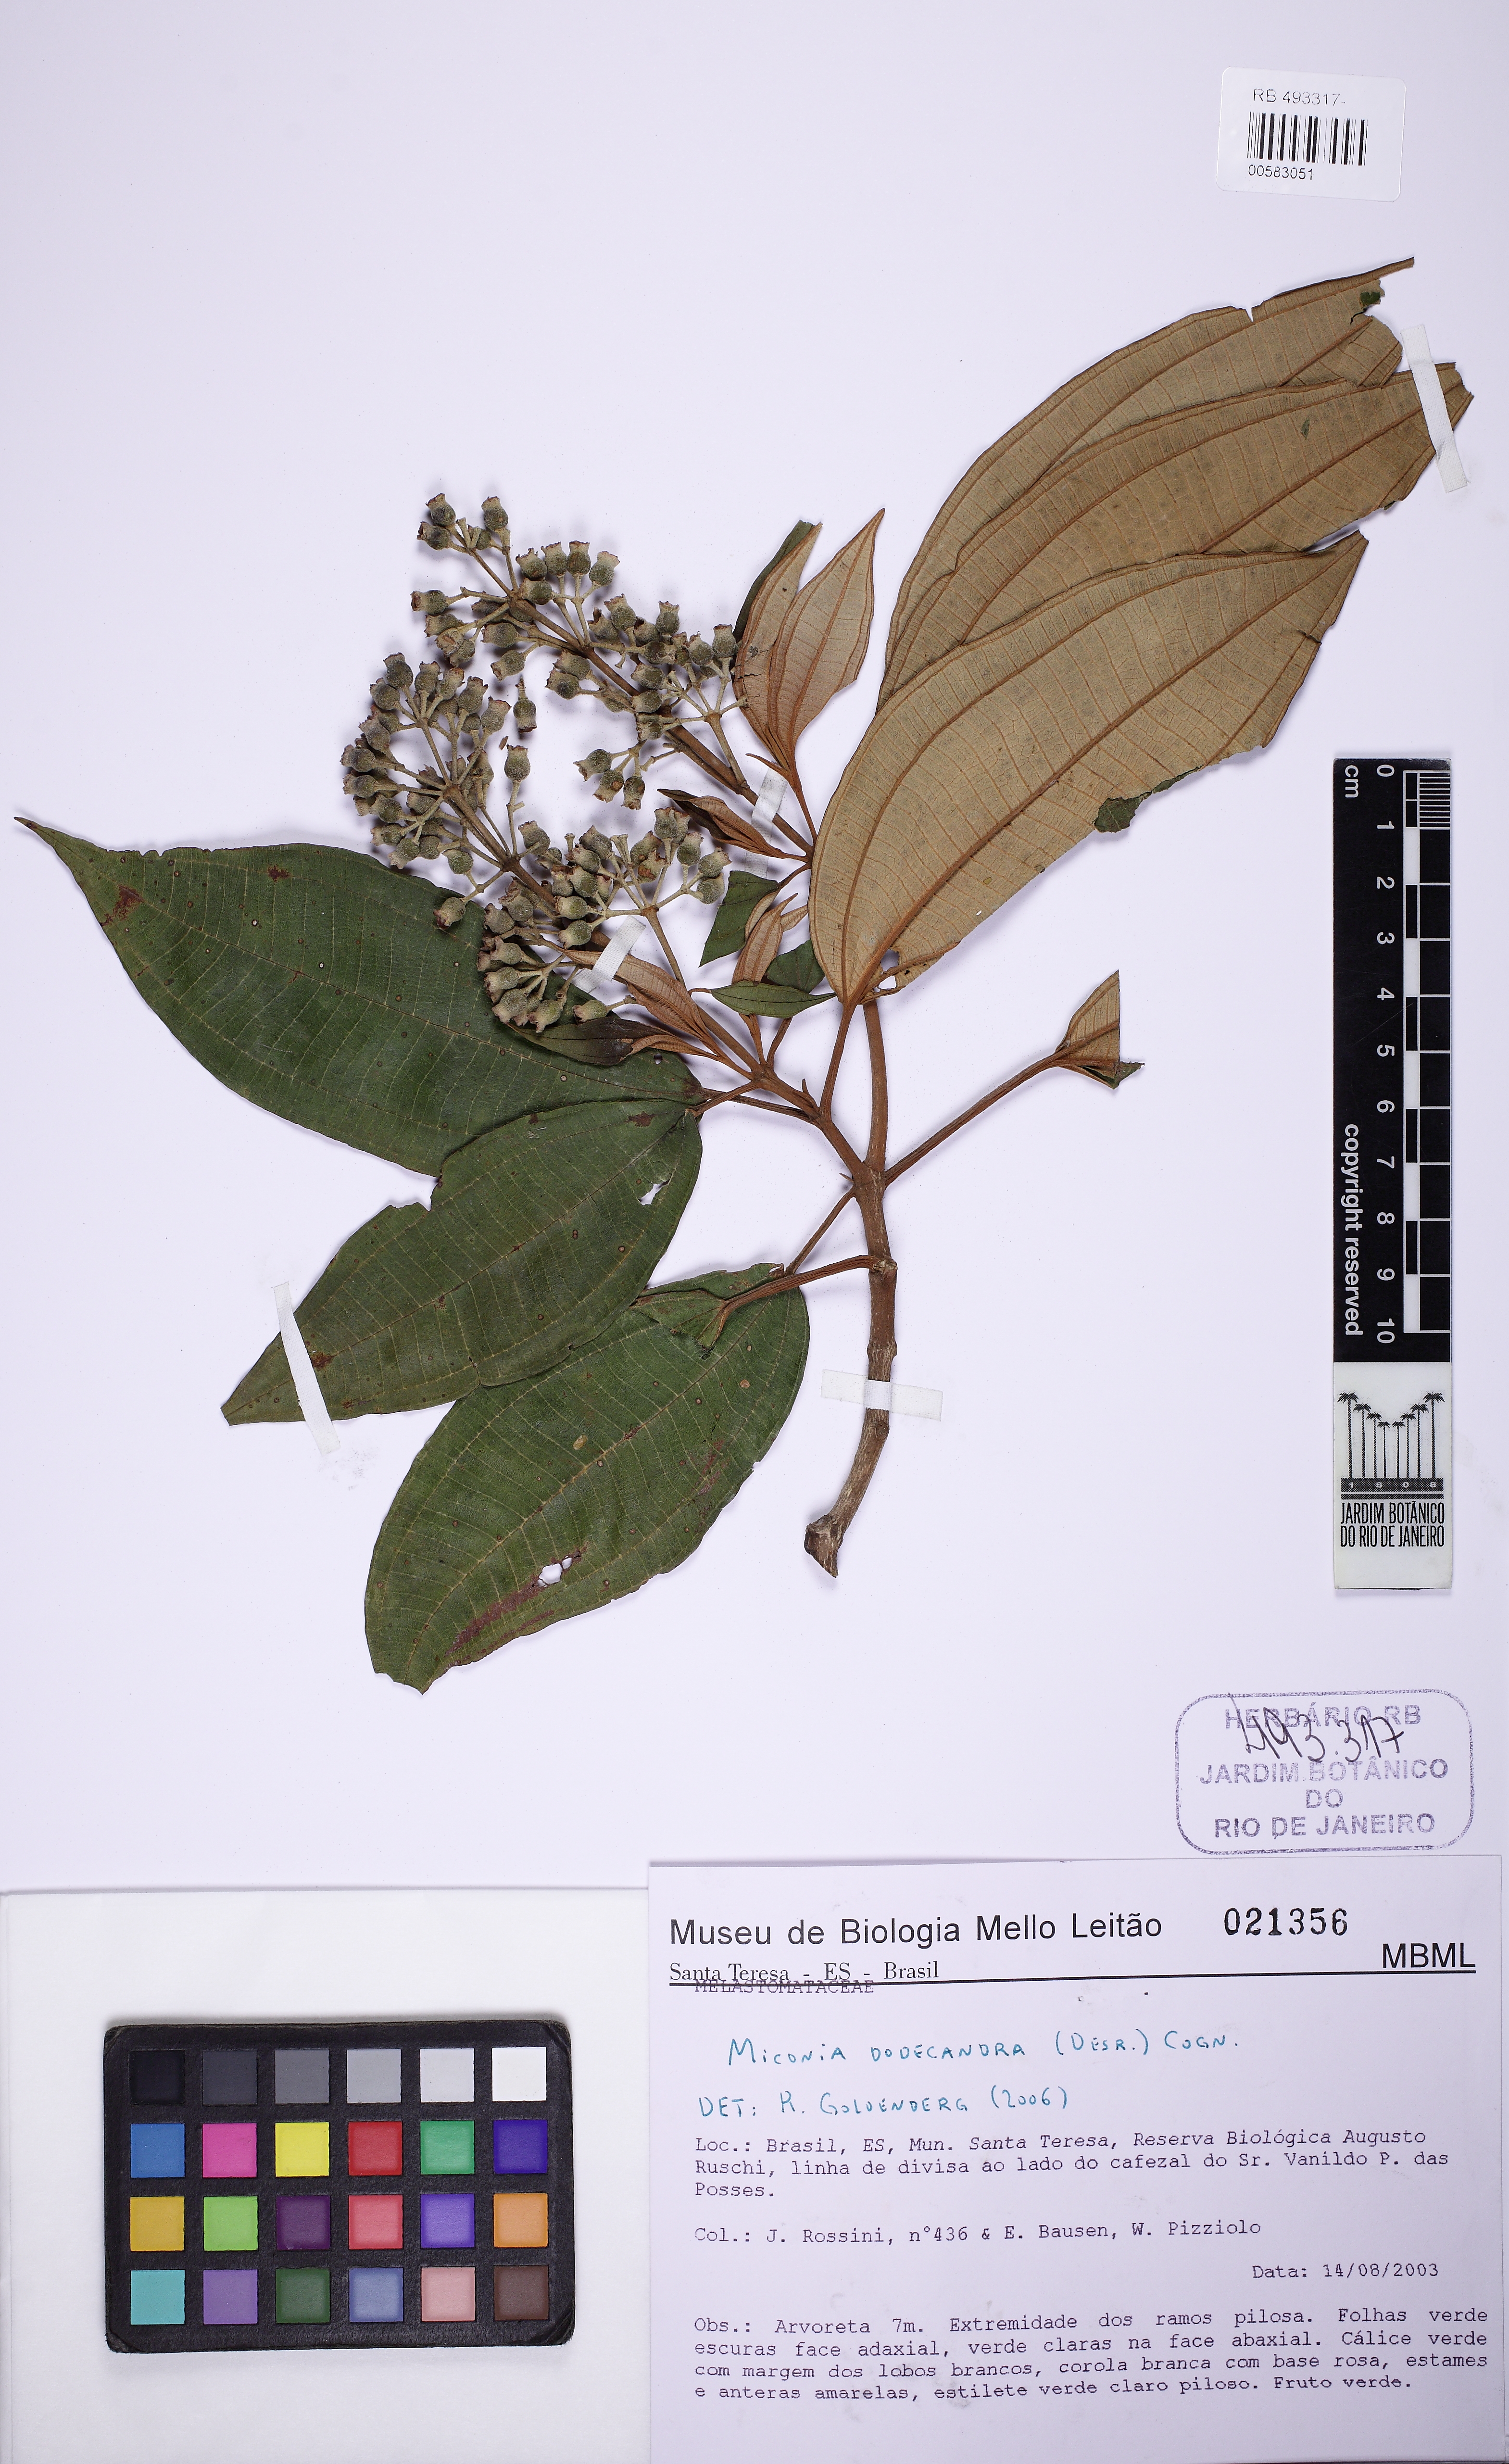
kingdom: Plantae
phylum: Tracheophyta
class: Magnoliopsida
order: Myrtales
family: Melastomataceae
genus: Miconia
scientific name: Miconia dodecandra
